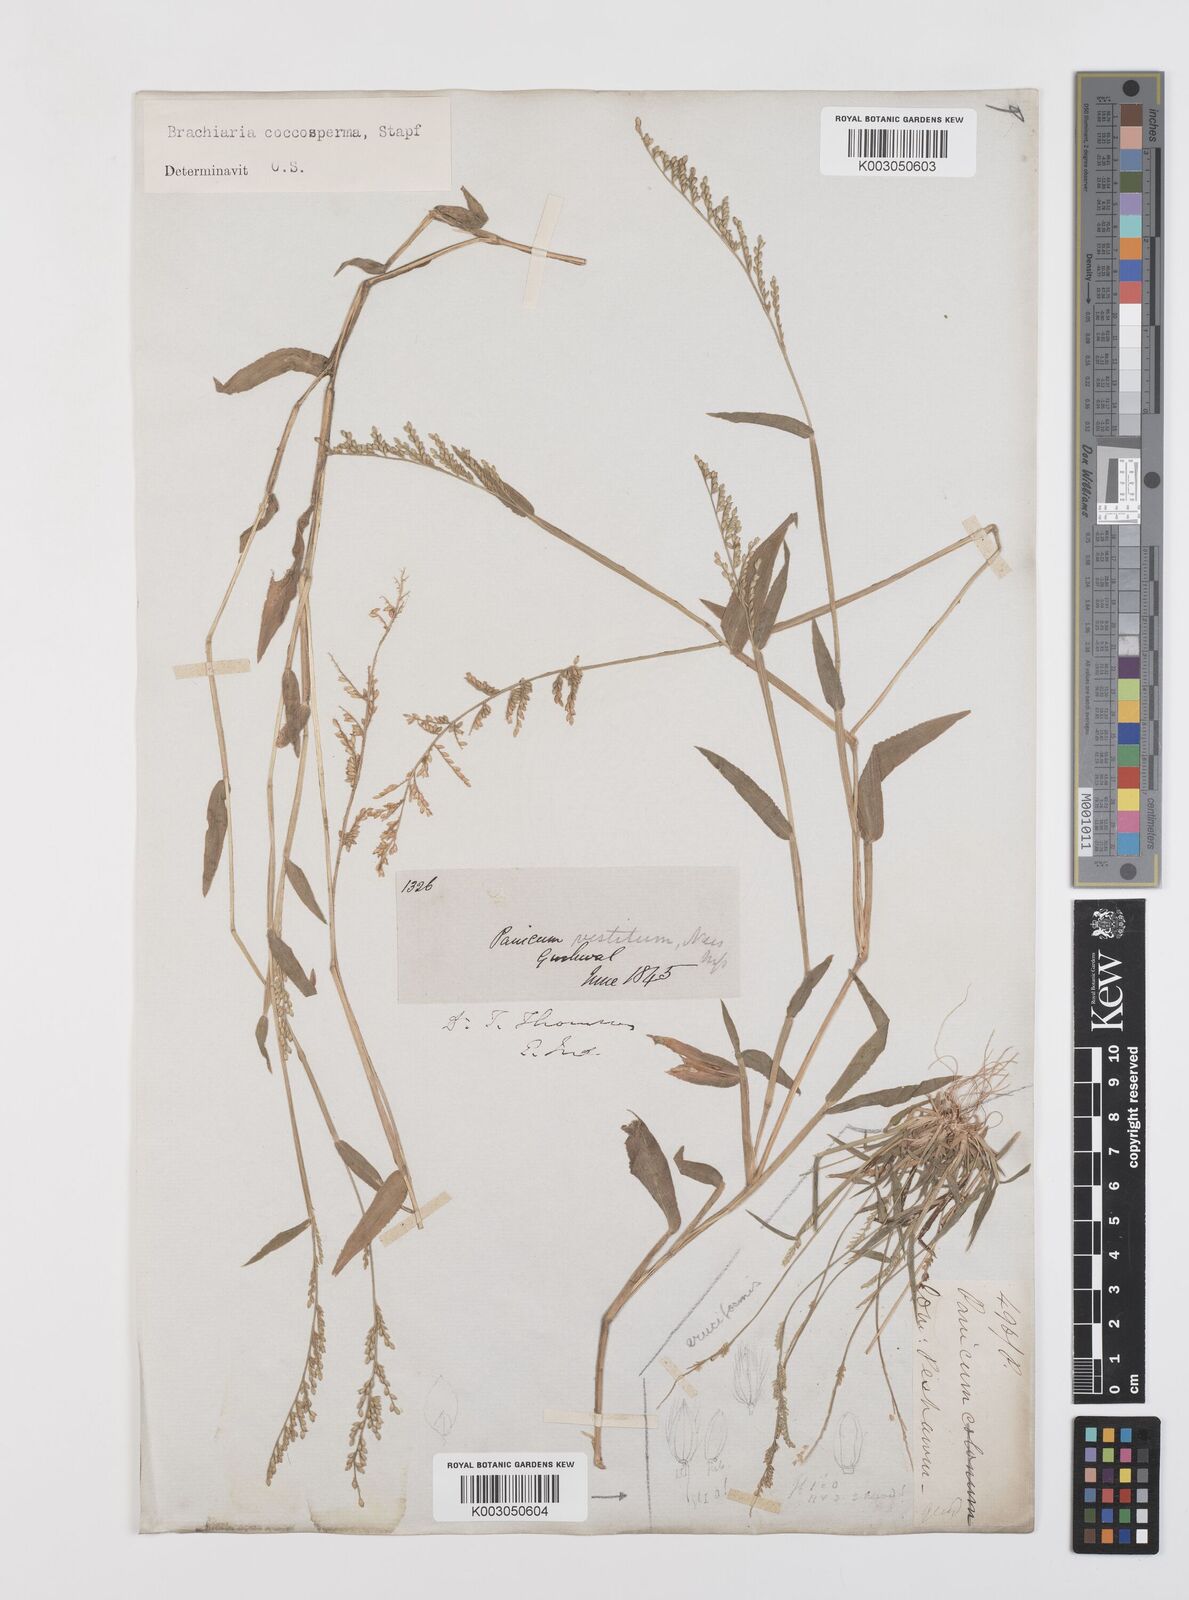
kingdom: Plantae
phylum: Tracheophyta
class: Liliopsida
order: Poales
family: Poaceae
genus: Urochloa
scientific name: Urochloa villosa
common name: Hairy signalgrass
